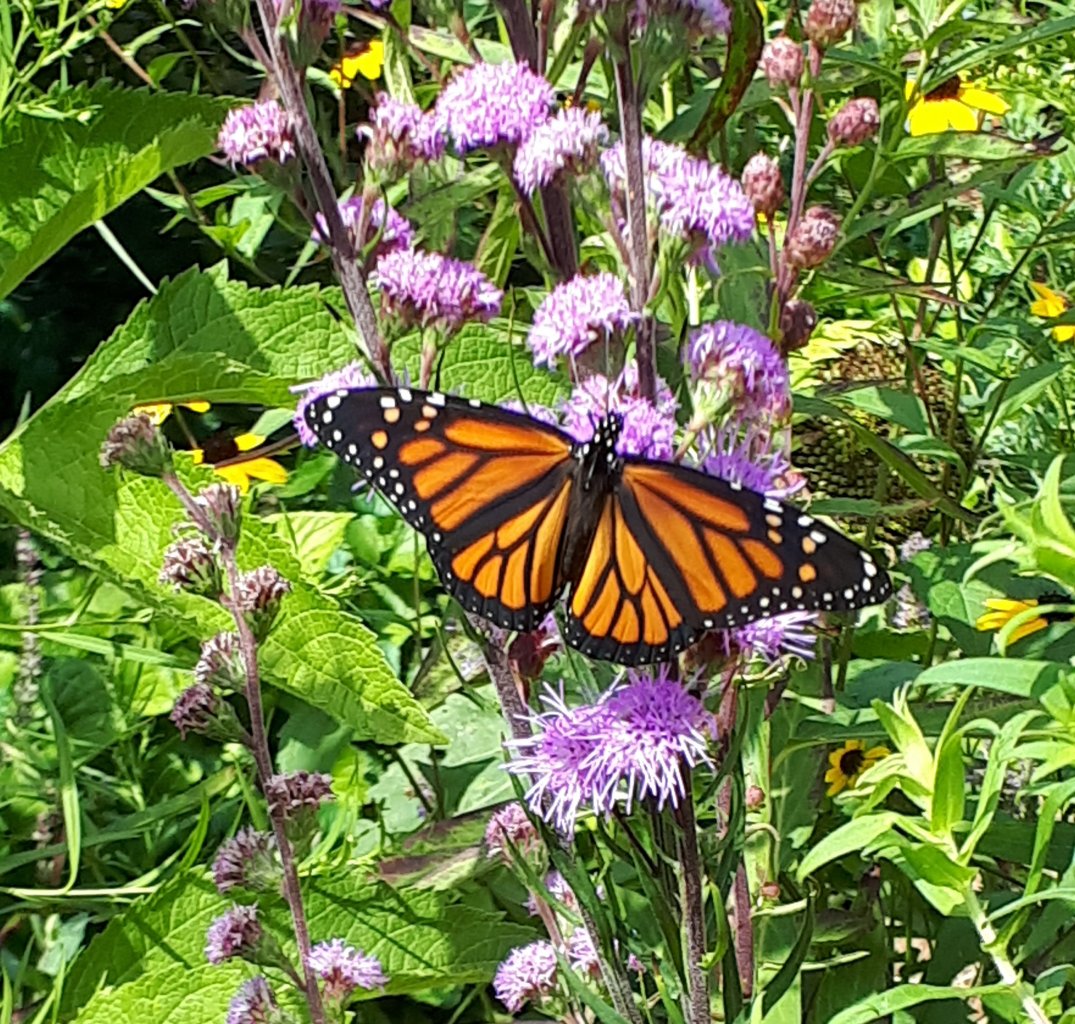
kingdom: Animalia
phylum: Arthropoda
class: Insecta
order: Lepidoptera
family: Nymphalidae
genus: Danaus
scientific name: Danaus plexippus
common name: Monarch
